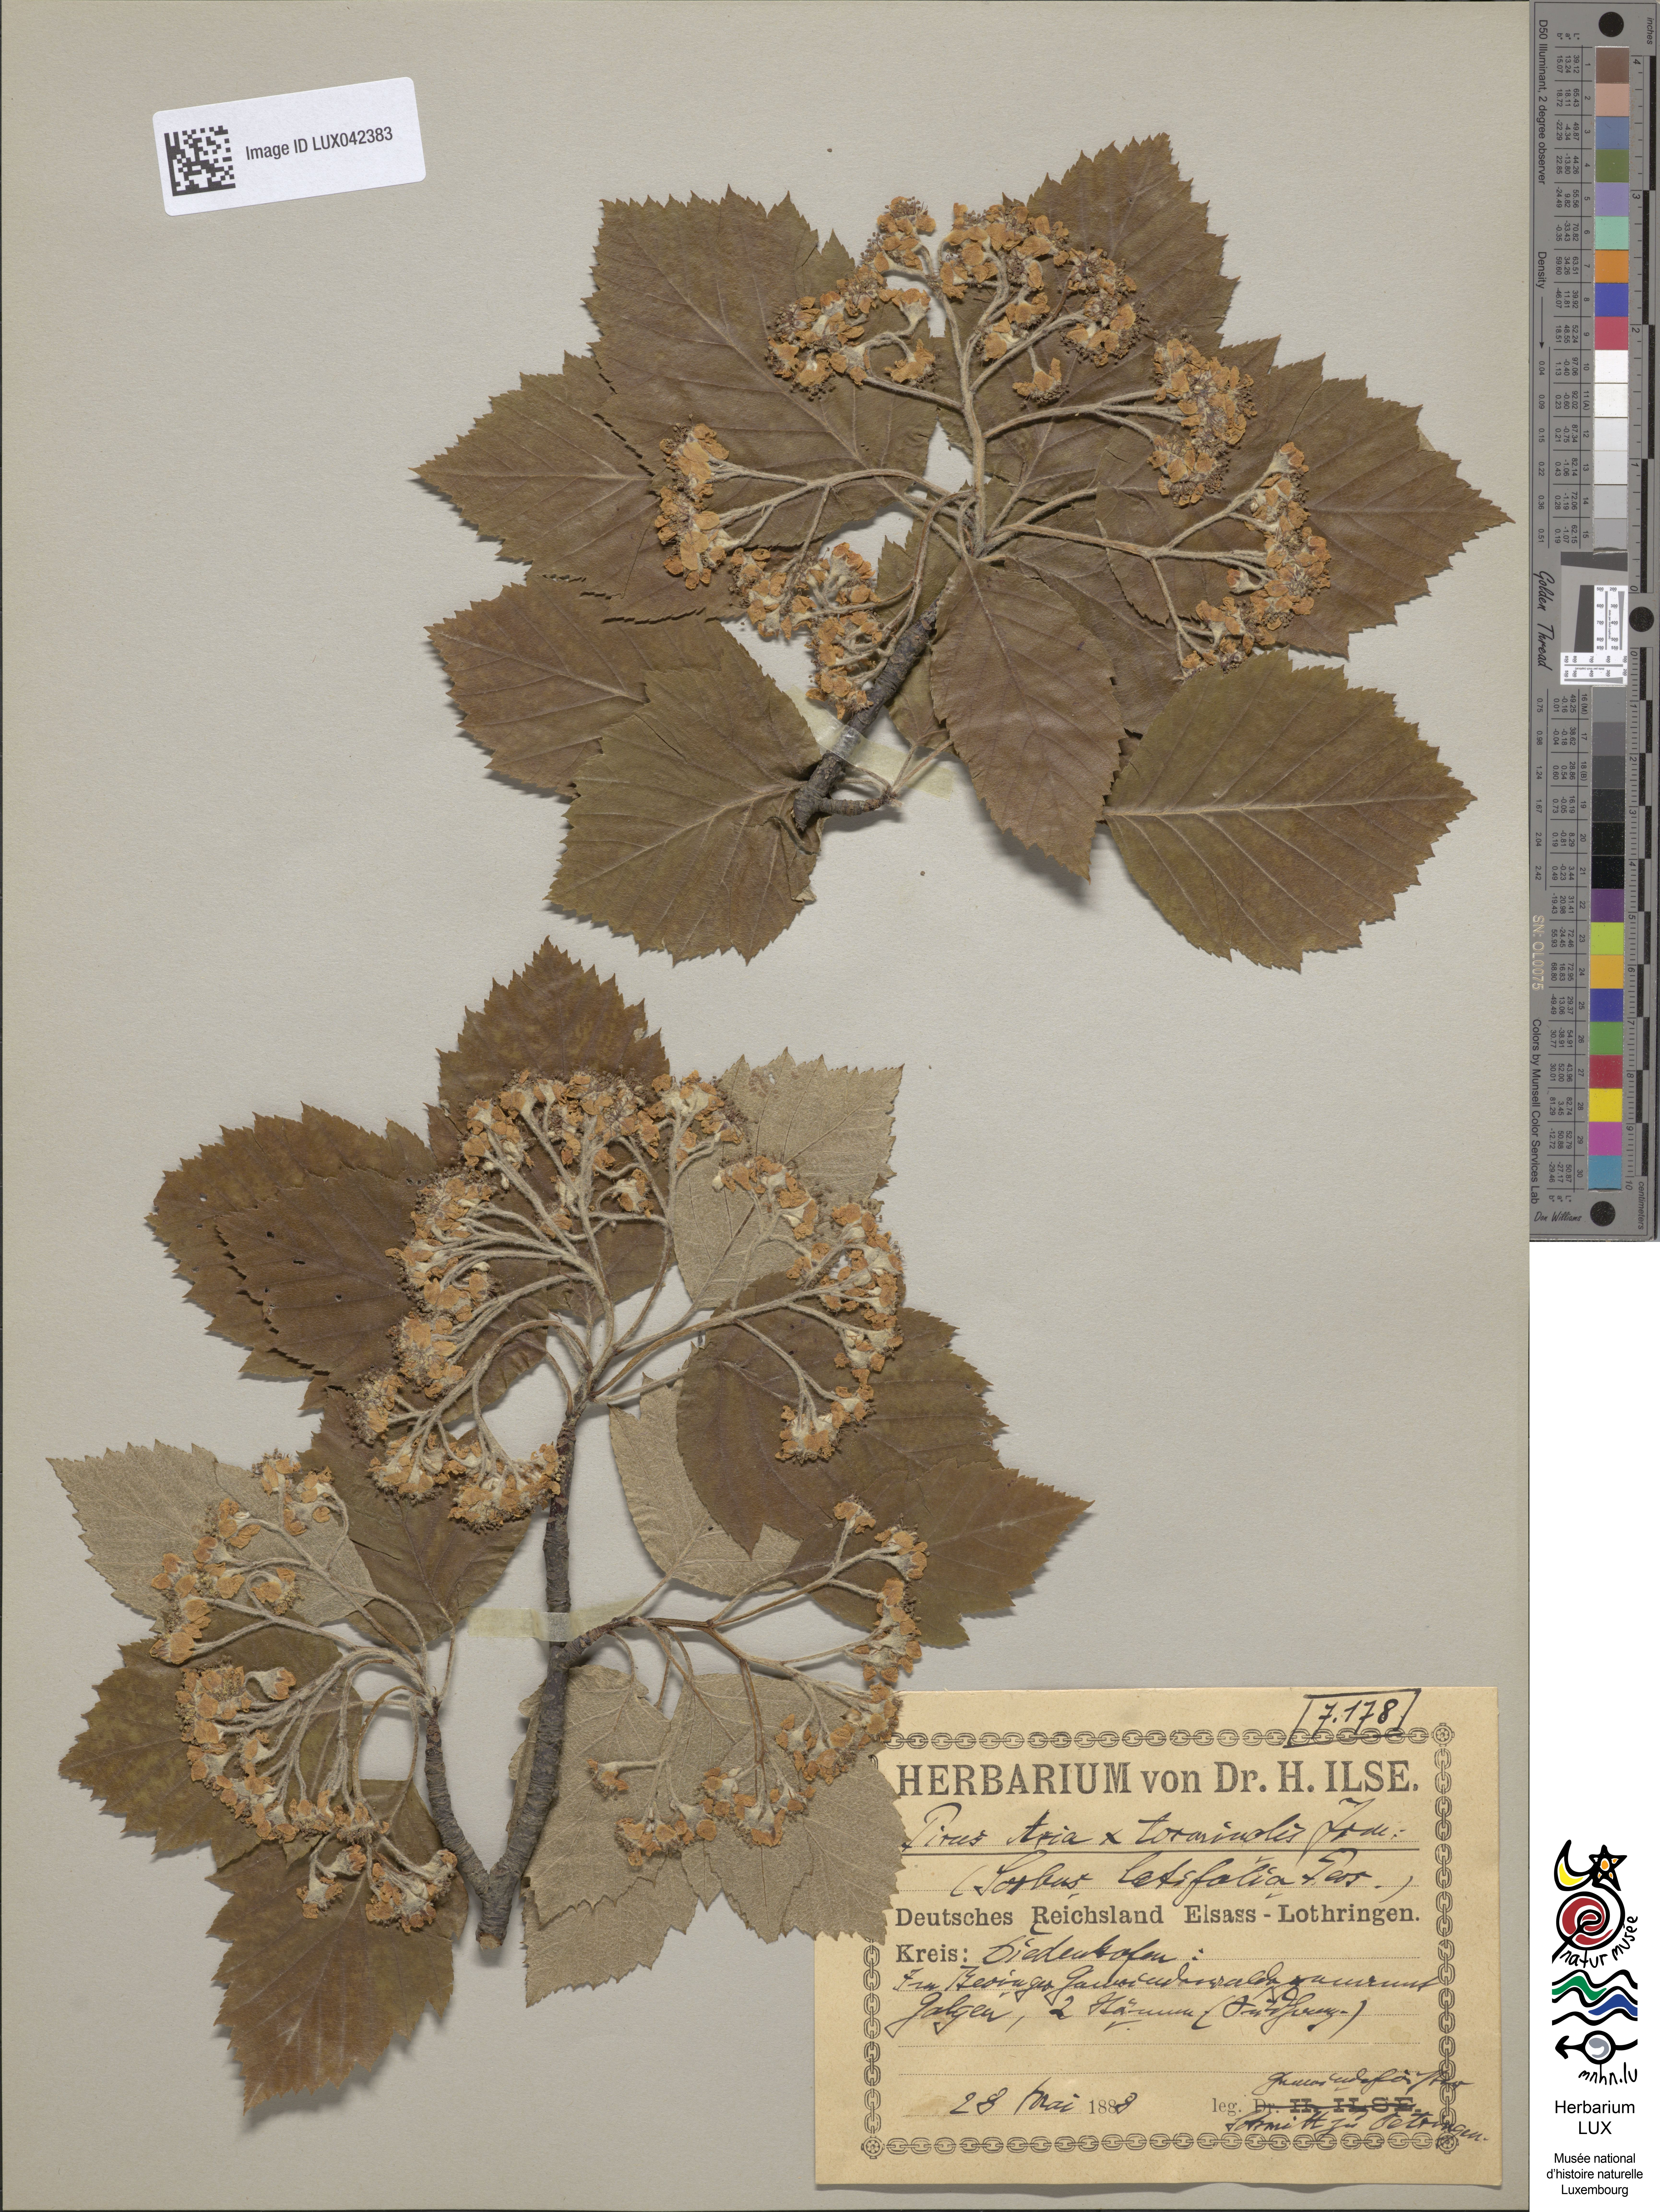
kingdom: Plantae
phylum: Tracheophyta
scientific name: Tracheophyta
